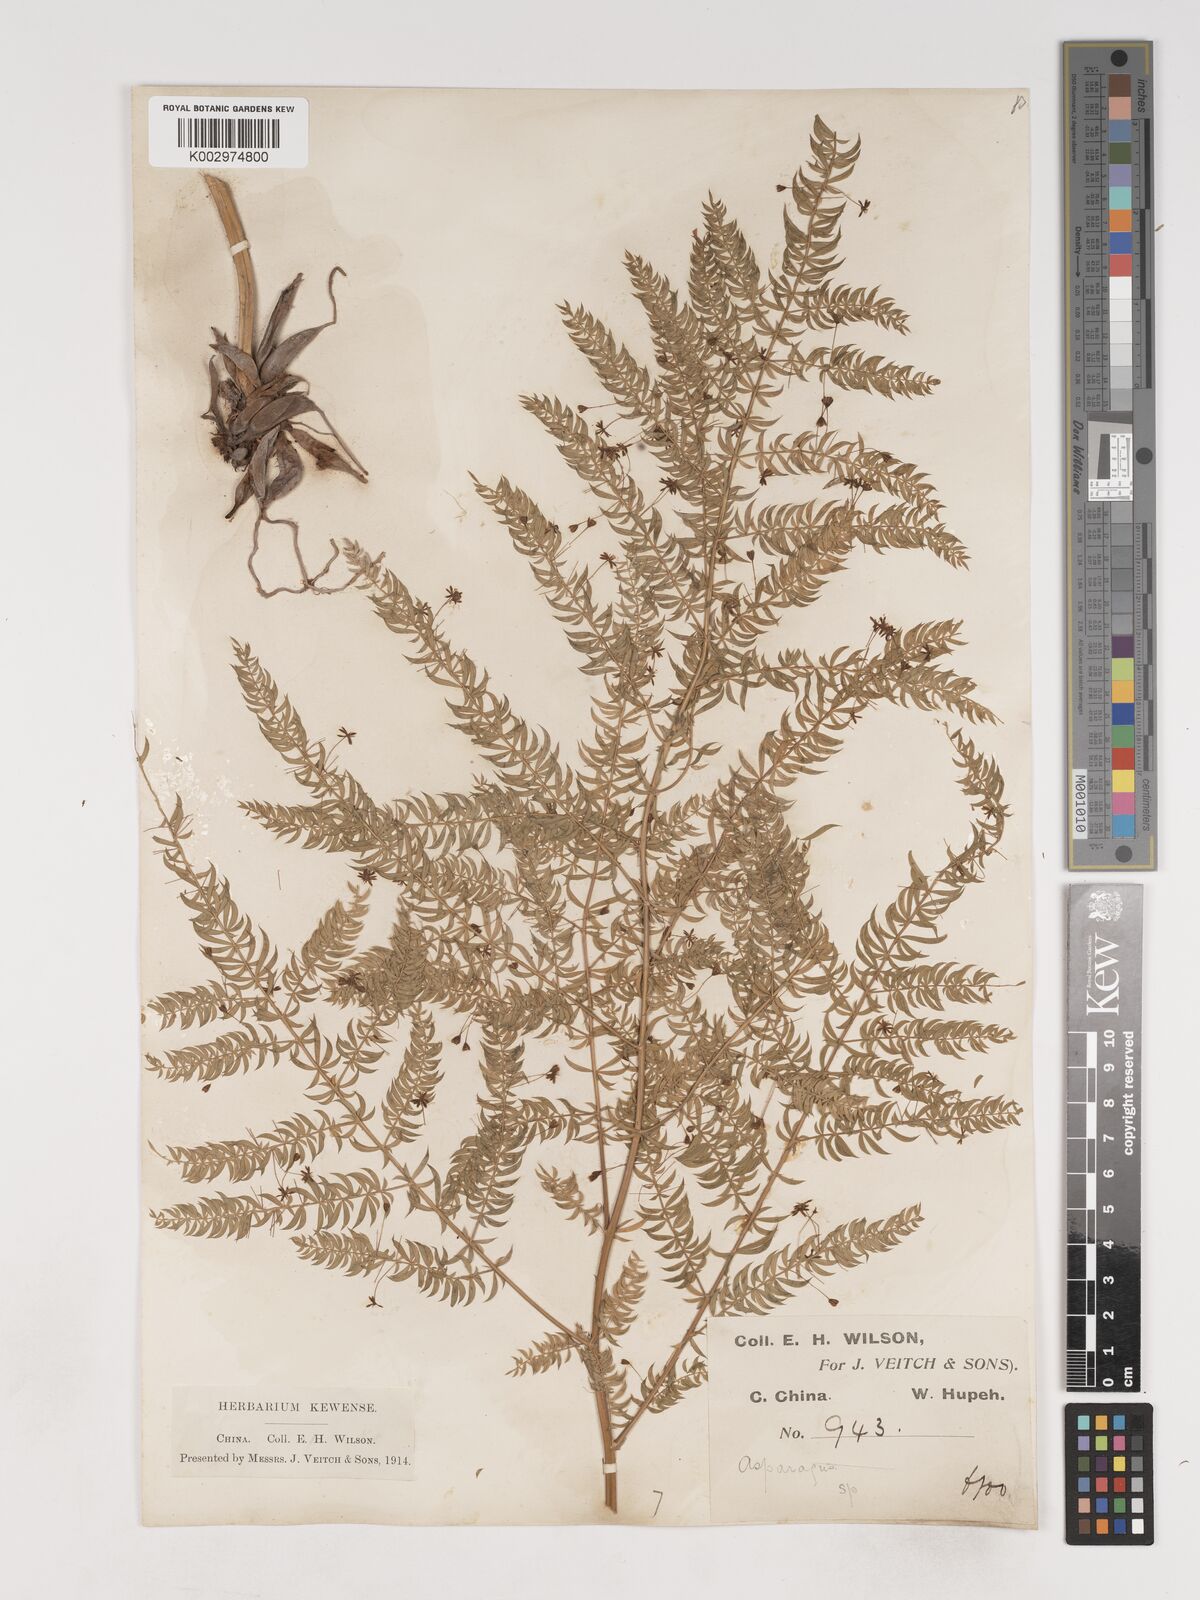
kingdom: Plantae
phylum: Tracheophyta
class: Liliopsida
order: Asparagales
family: Asparagaceae
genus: Asparagus
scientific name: Asparagus filicinus
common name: Fern asparagus
